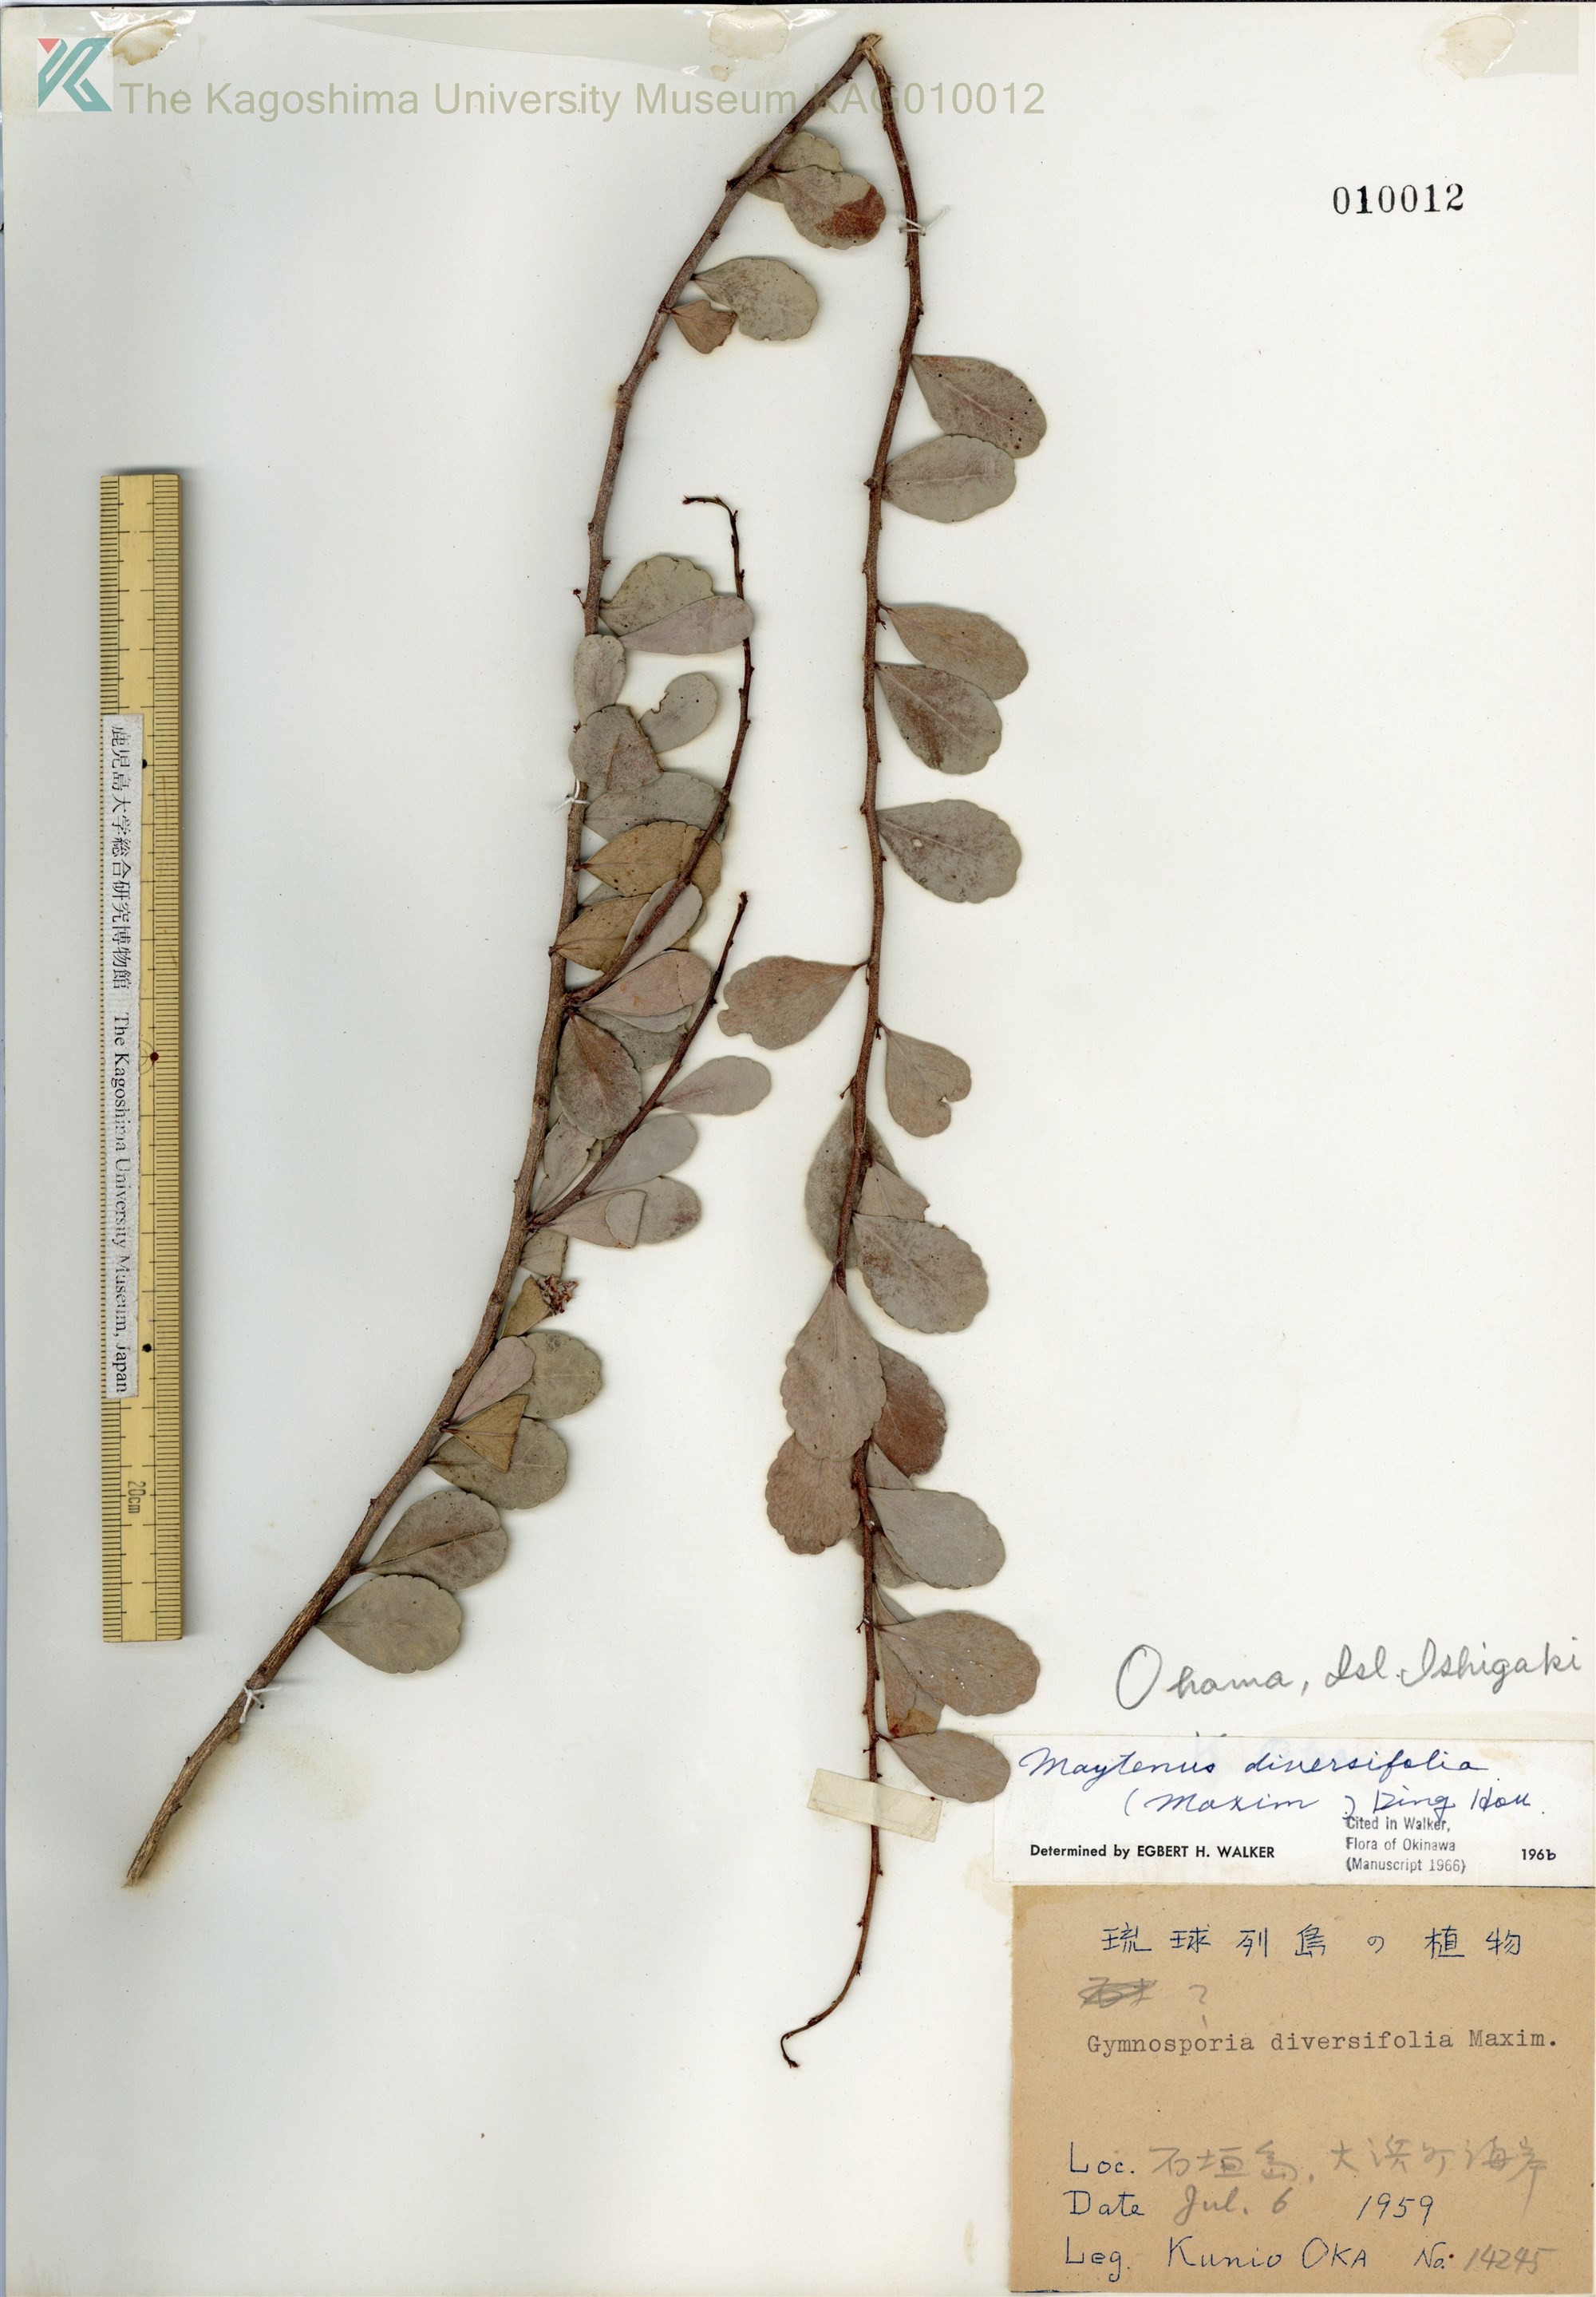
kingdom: Plantae
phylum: Tracheophyta
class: Magnoliopsida
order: Celastrales
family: Celastraceae
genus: Gymnosporia
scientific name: Gymnosporia diversifolia
